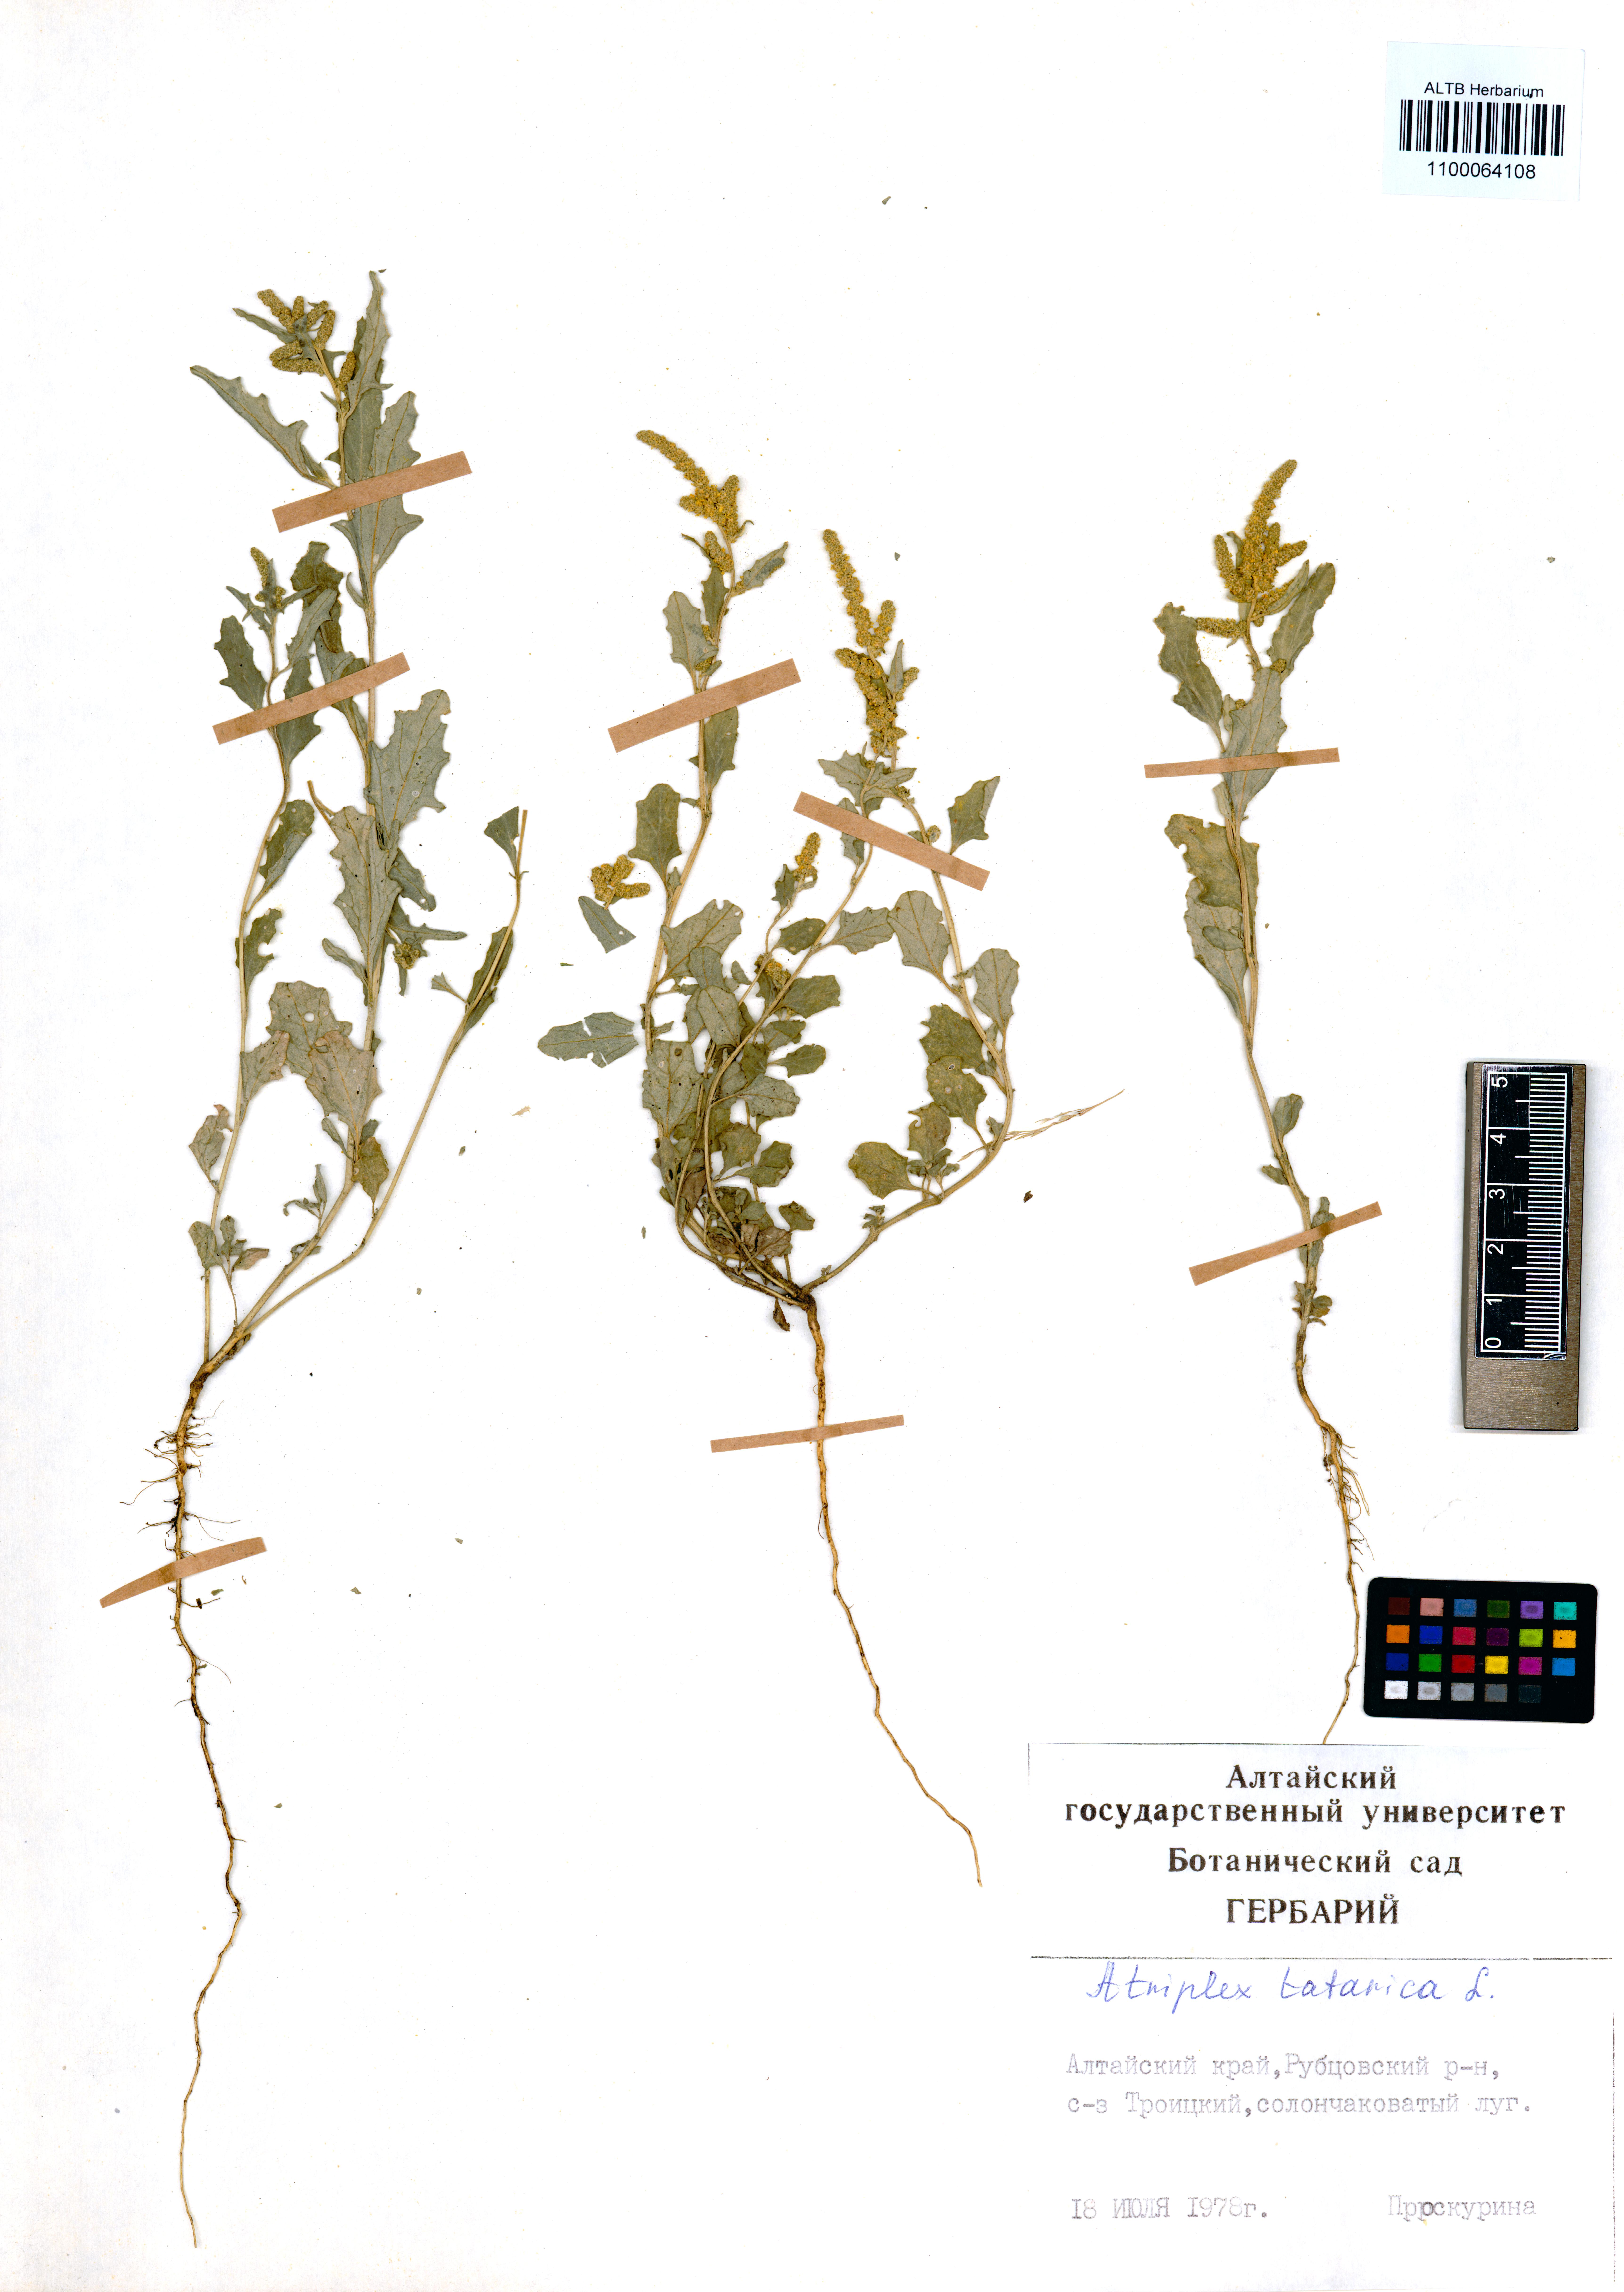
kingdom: Plantae
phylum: Tracheophyta
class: Magnoliopsida
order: Caryophyllales
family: Amaranthaceae
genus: Atriplex
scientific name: Atriplex tatarica
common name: Tatarian orache
